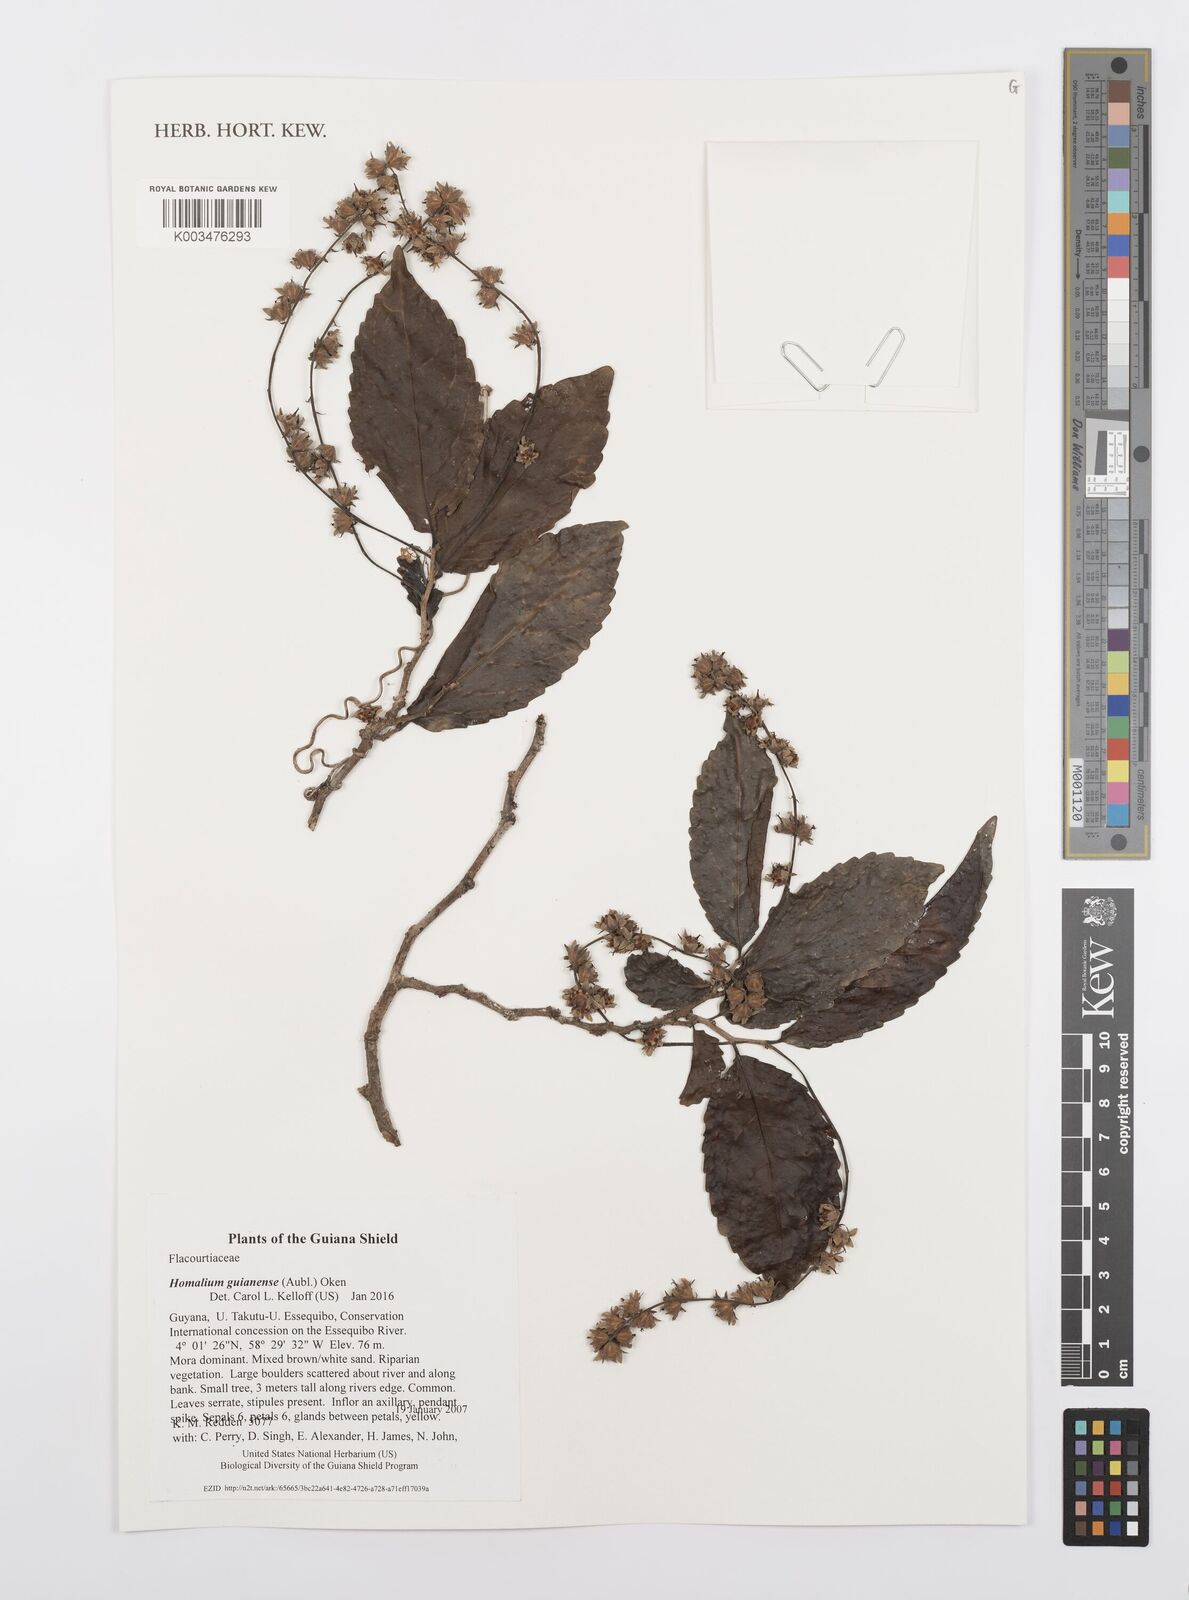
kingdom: Plantae
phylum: Tracheophyta
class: Magnoliopsida
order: Malpighiales
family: Salicaceae
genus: Homalium
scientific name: Homalium guianense
